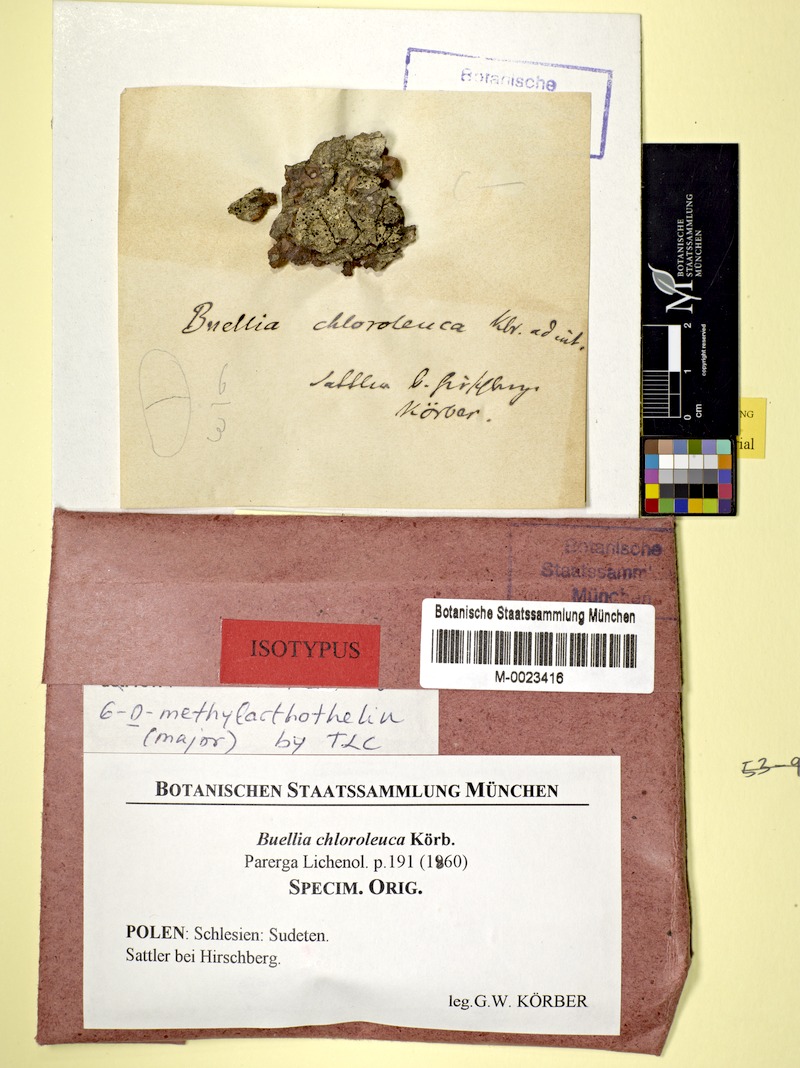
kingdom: Fungi
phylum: Ascomycota
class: Lecanoromycetes
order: Caliciales
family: Caliciaceae
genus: Tetramelas
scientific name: Tetramelas chloroleucus
